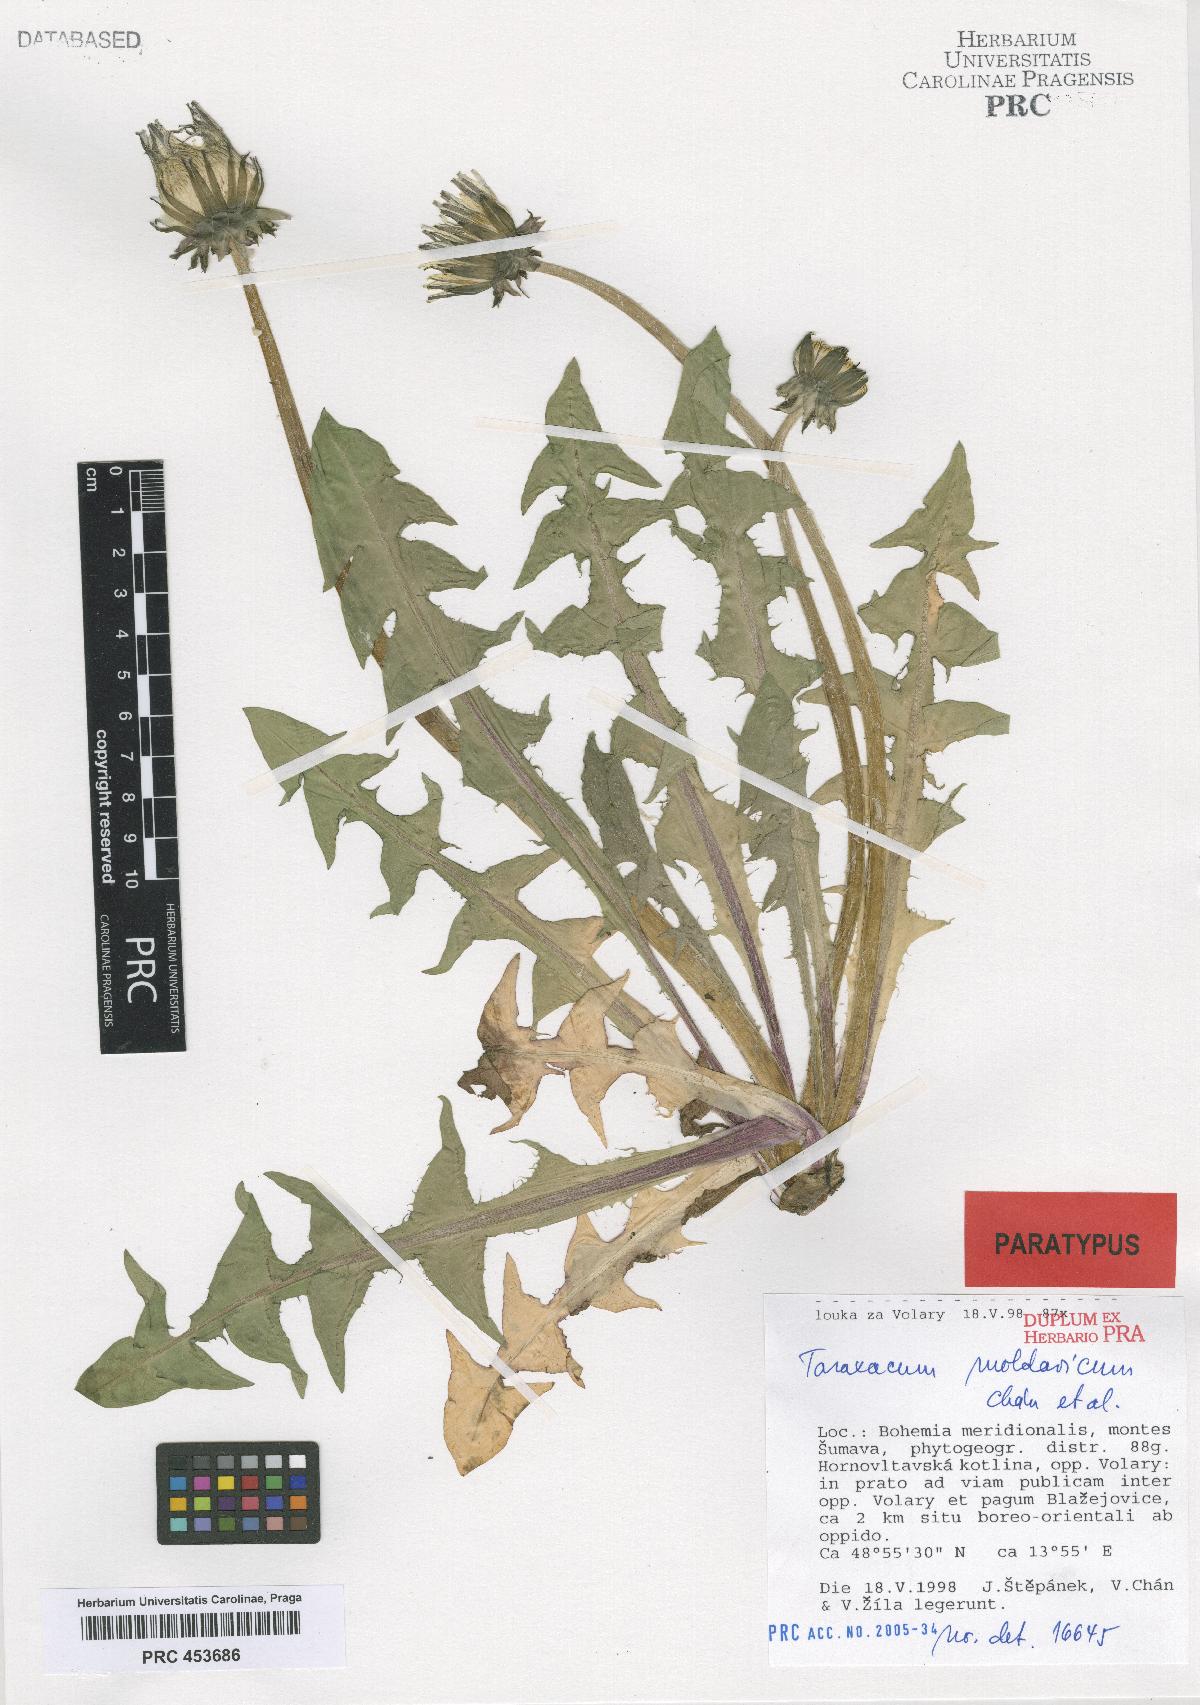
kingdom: Plantae
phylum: Tracheophyta
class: Magnoliopsida
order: Asterales
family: Asteraceae
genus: Taraxacum
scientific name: Taraxacum moldavicum
